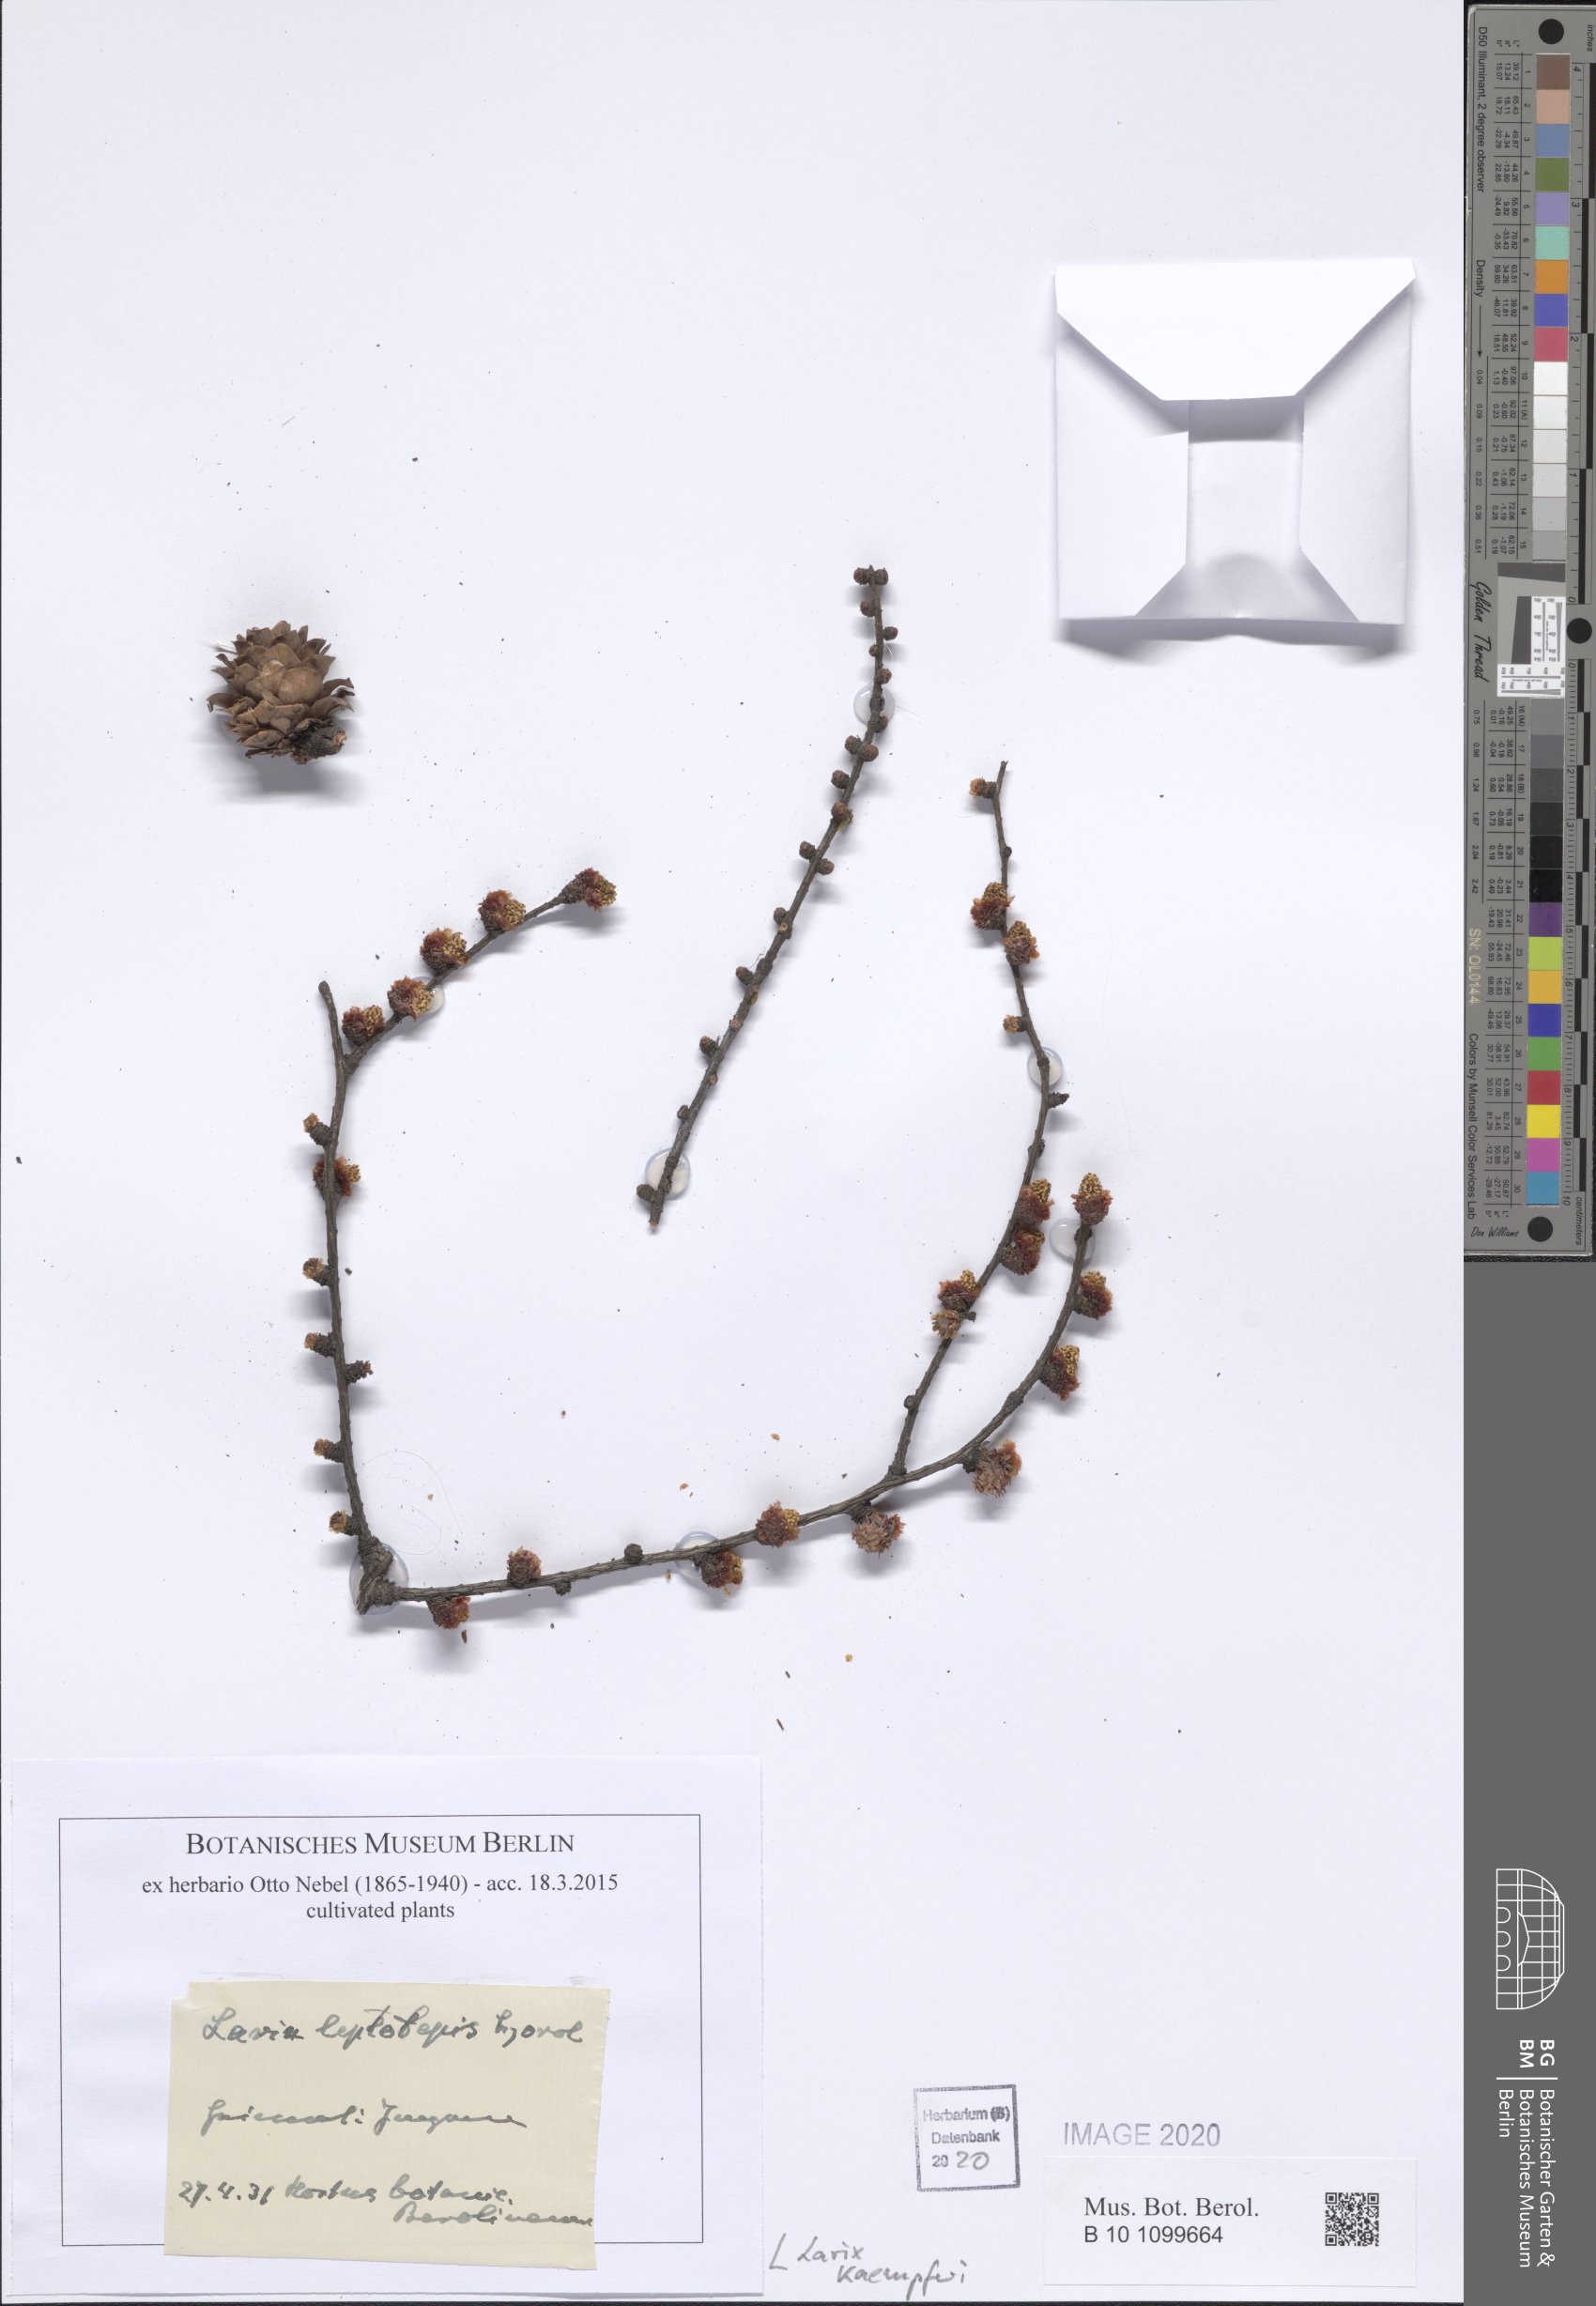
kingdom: Plantae
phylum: Tracheophyta
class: Pinopsida
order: Pinales
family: Pinaceae
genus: Larix
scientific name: Larix kaempferi
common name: Japanese larch
